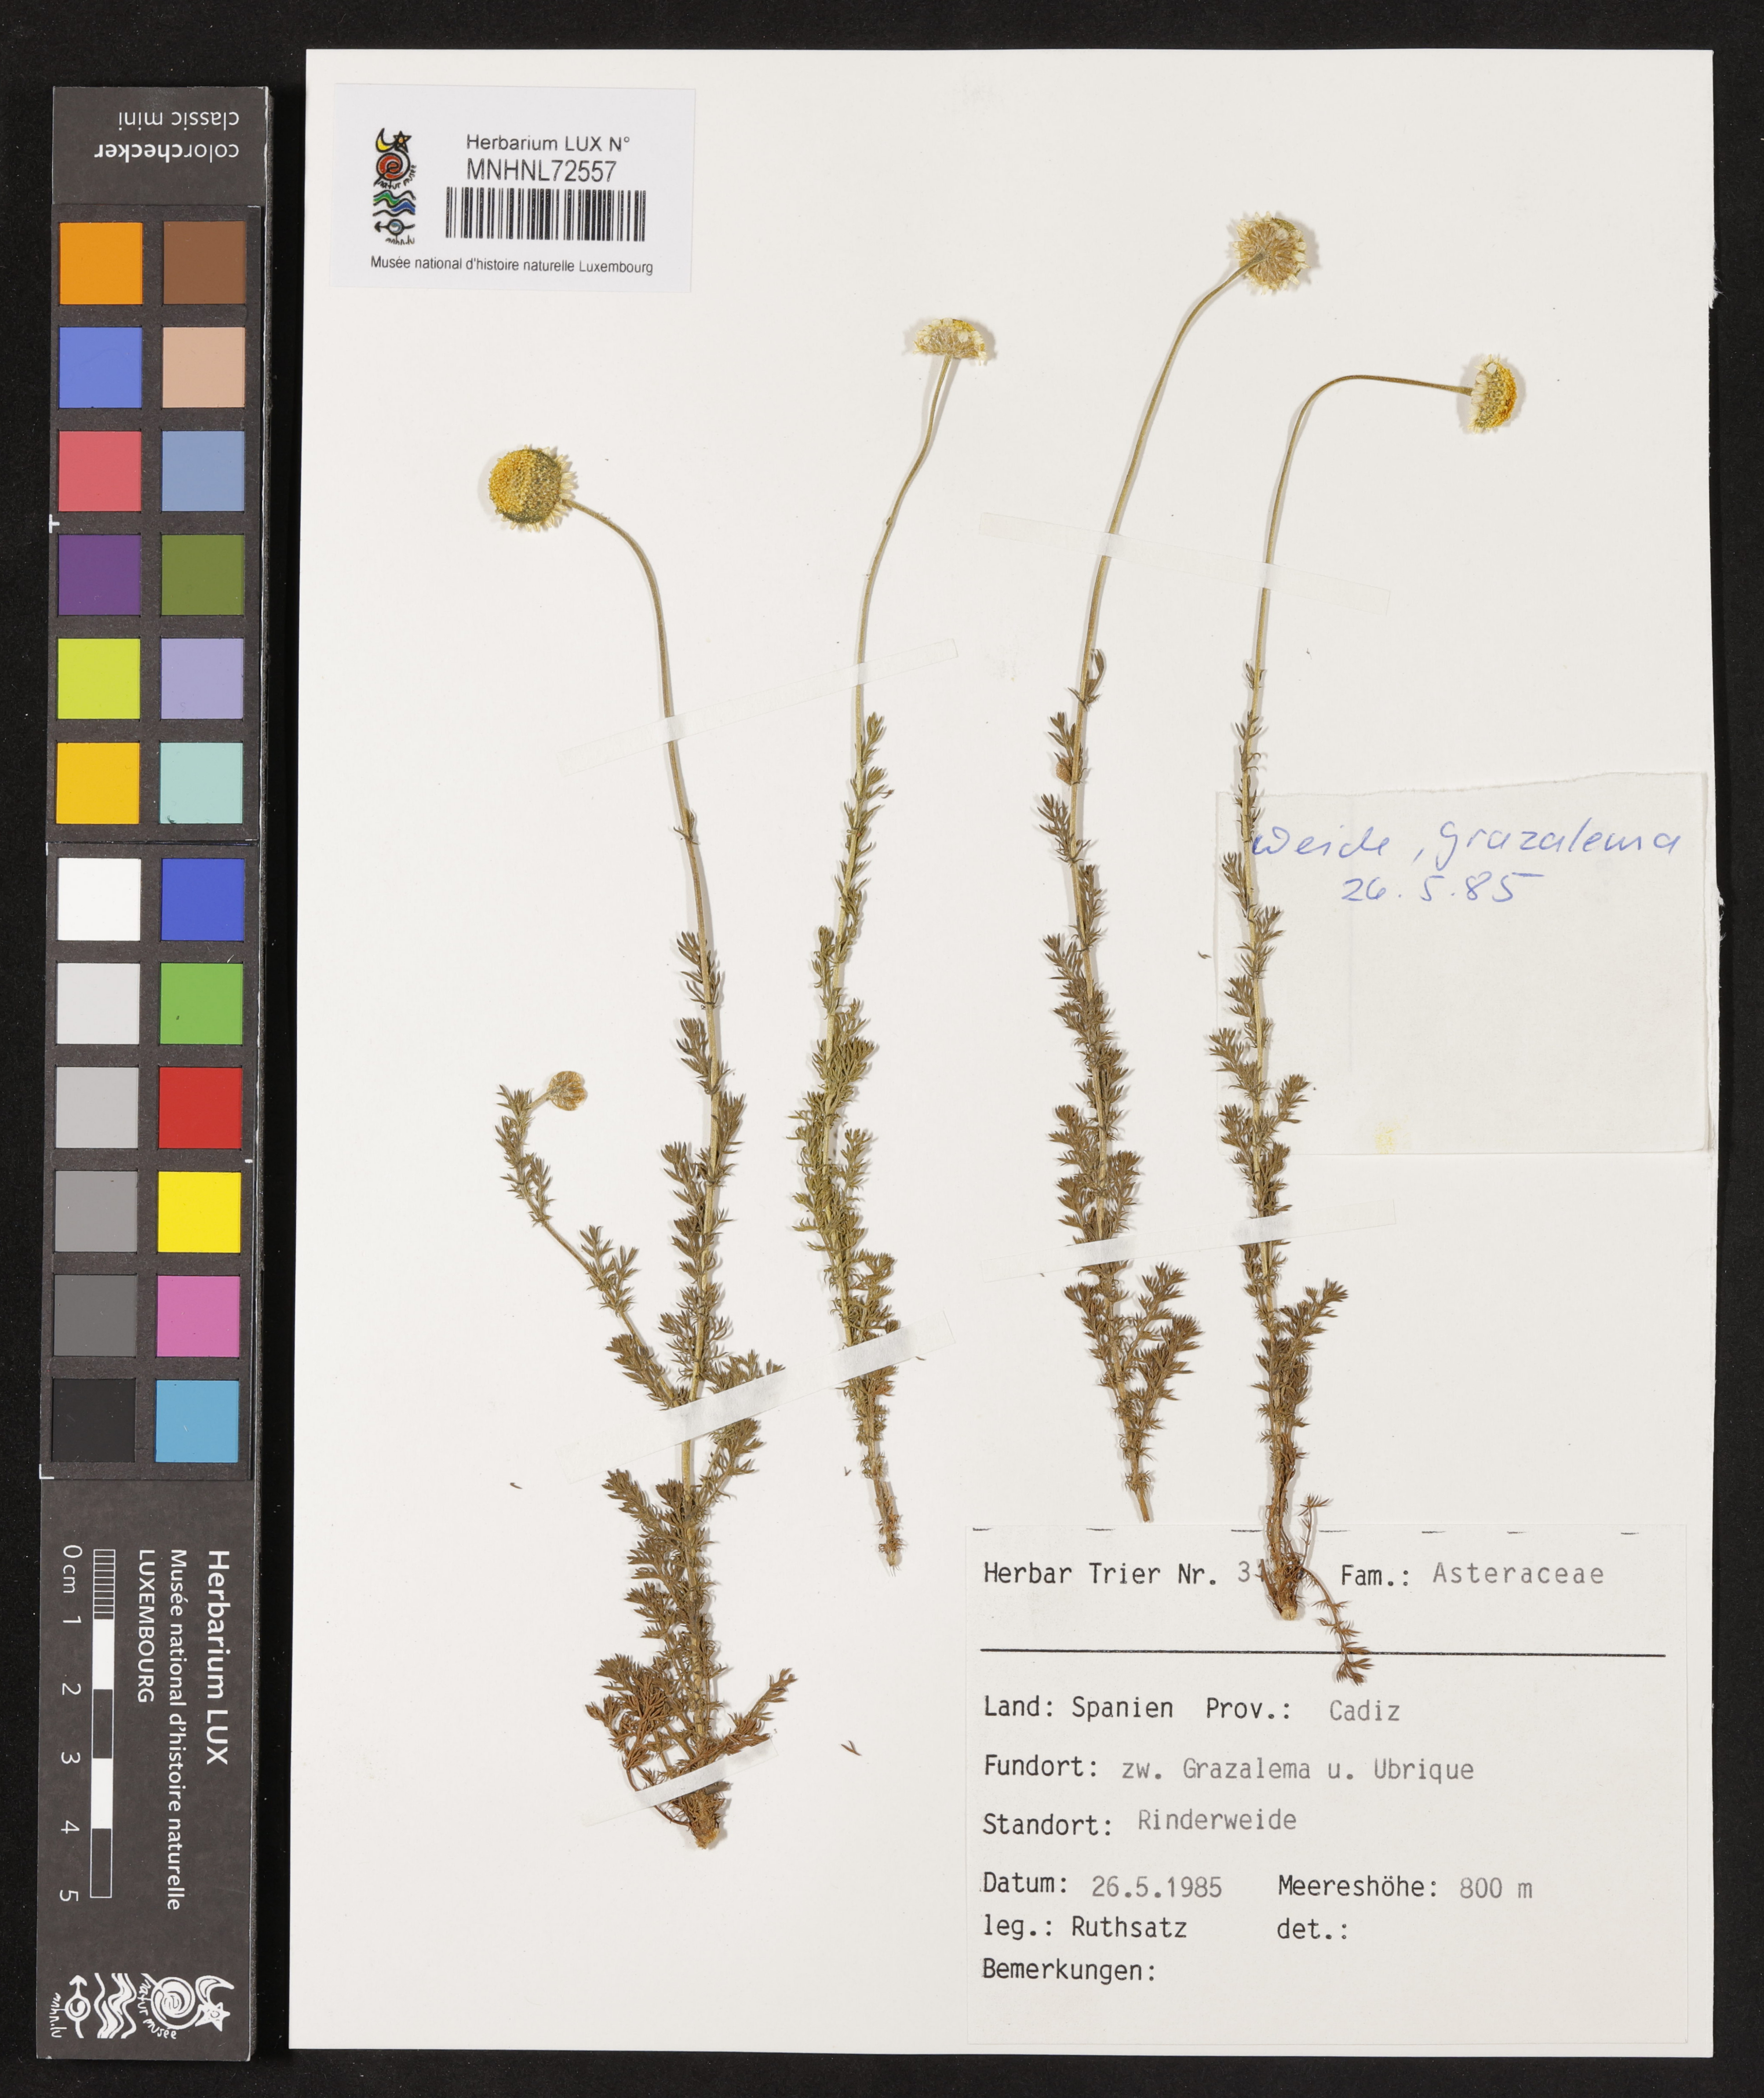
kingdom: Plantae
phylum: Tracheophyta
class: Magnoliopsida
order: Asterales
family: Asteraceae
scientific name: Asteraceae
